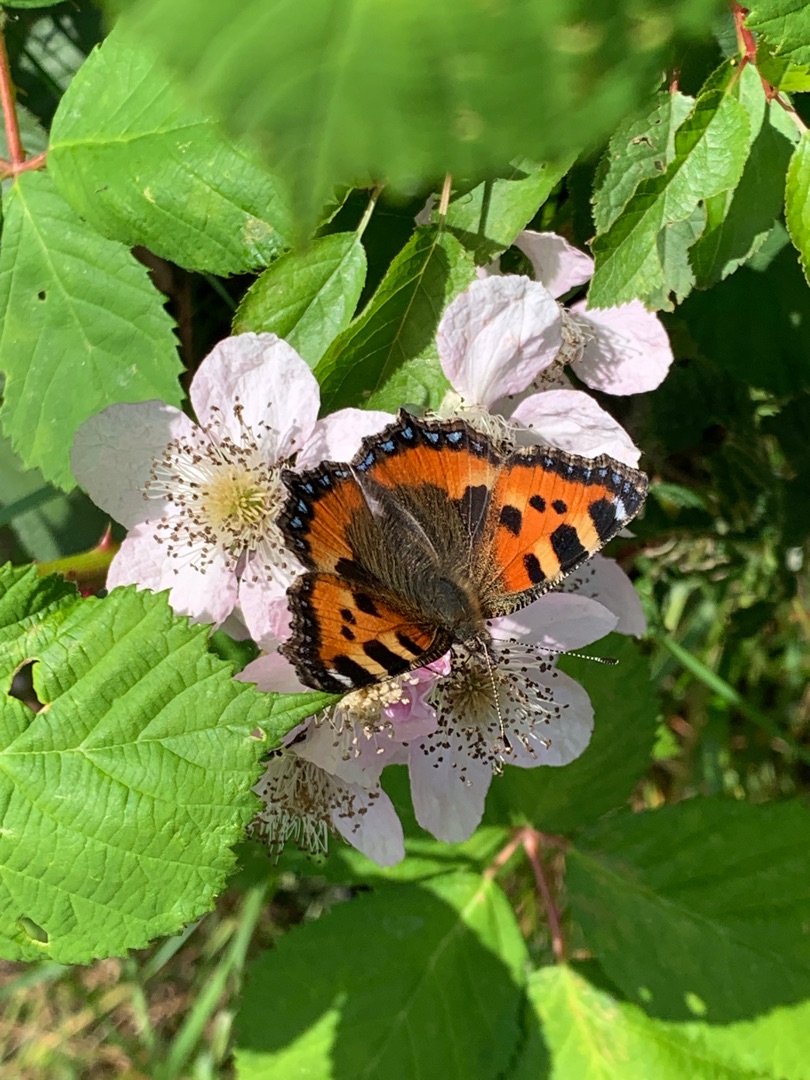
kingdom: Animalia
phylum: Arthropoda
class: Insecta
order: Lepidoptera
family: Nymphalidae
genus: Aglais
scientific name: Aglais urticae
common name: Nældens takvinge
